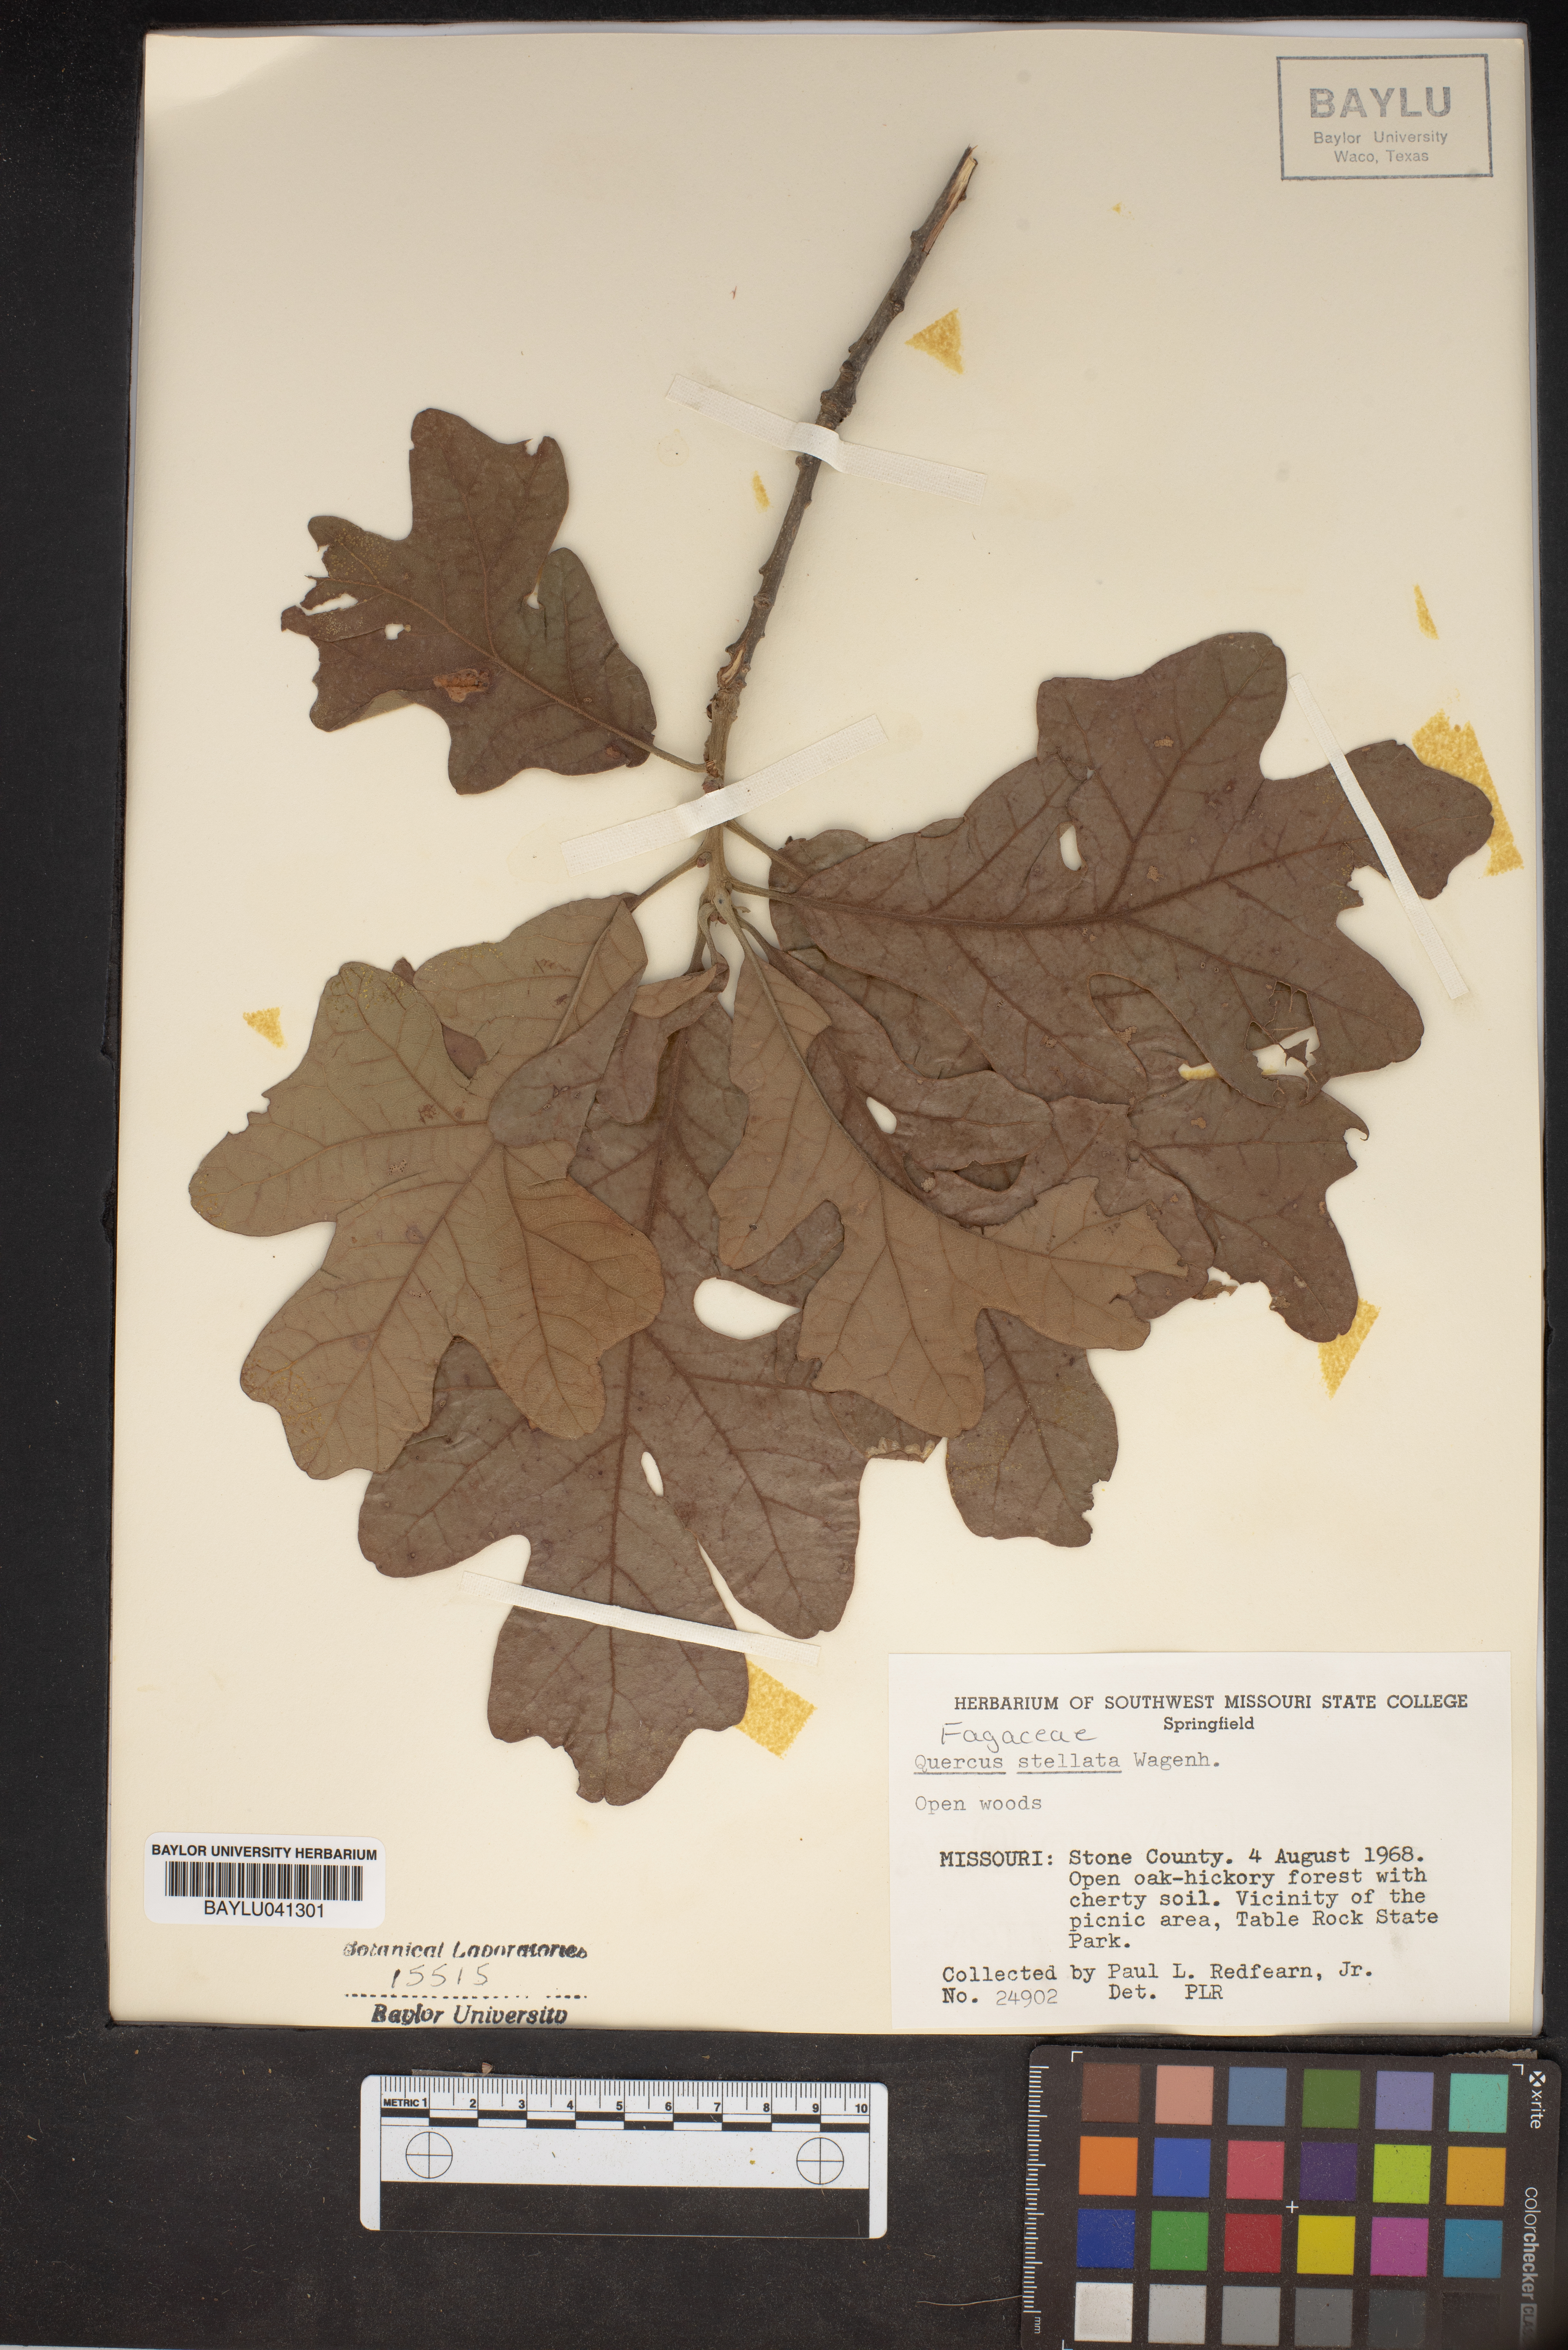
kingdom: Plantae
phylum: Tracheophyta
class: Magnoliopsida
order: Fagales
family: Fagaceae
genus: Quercus
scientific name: Quercus stellata
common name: Post oak
